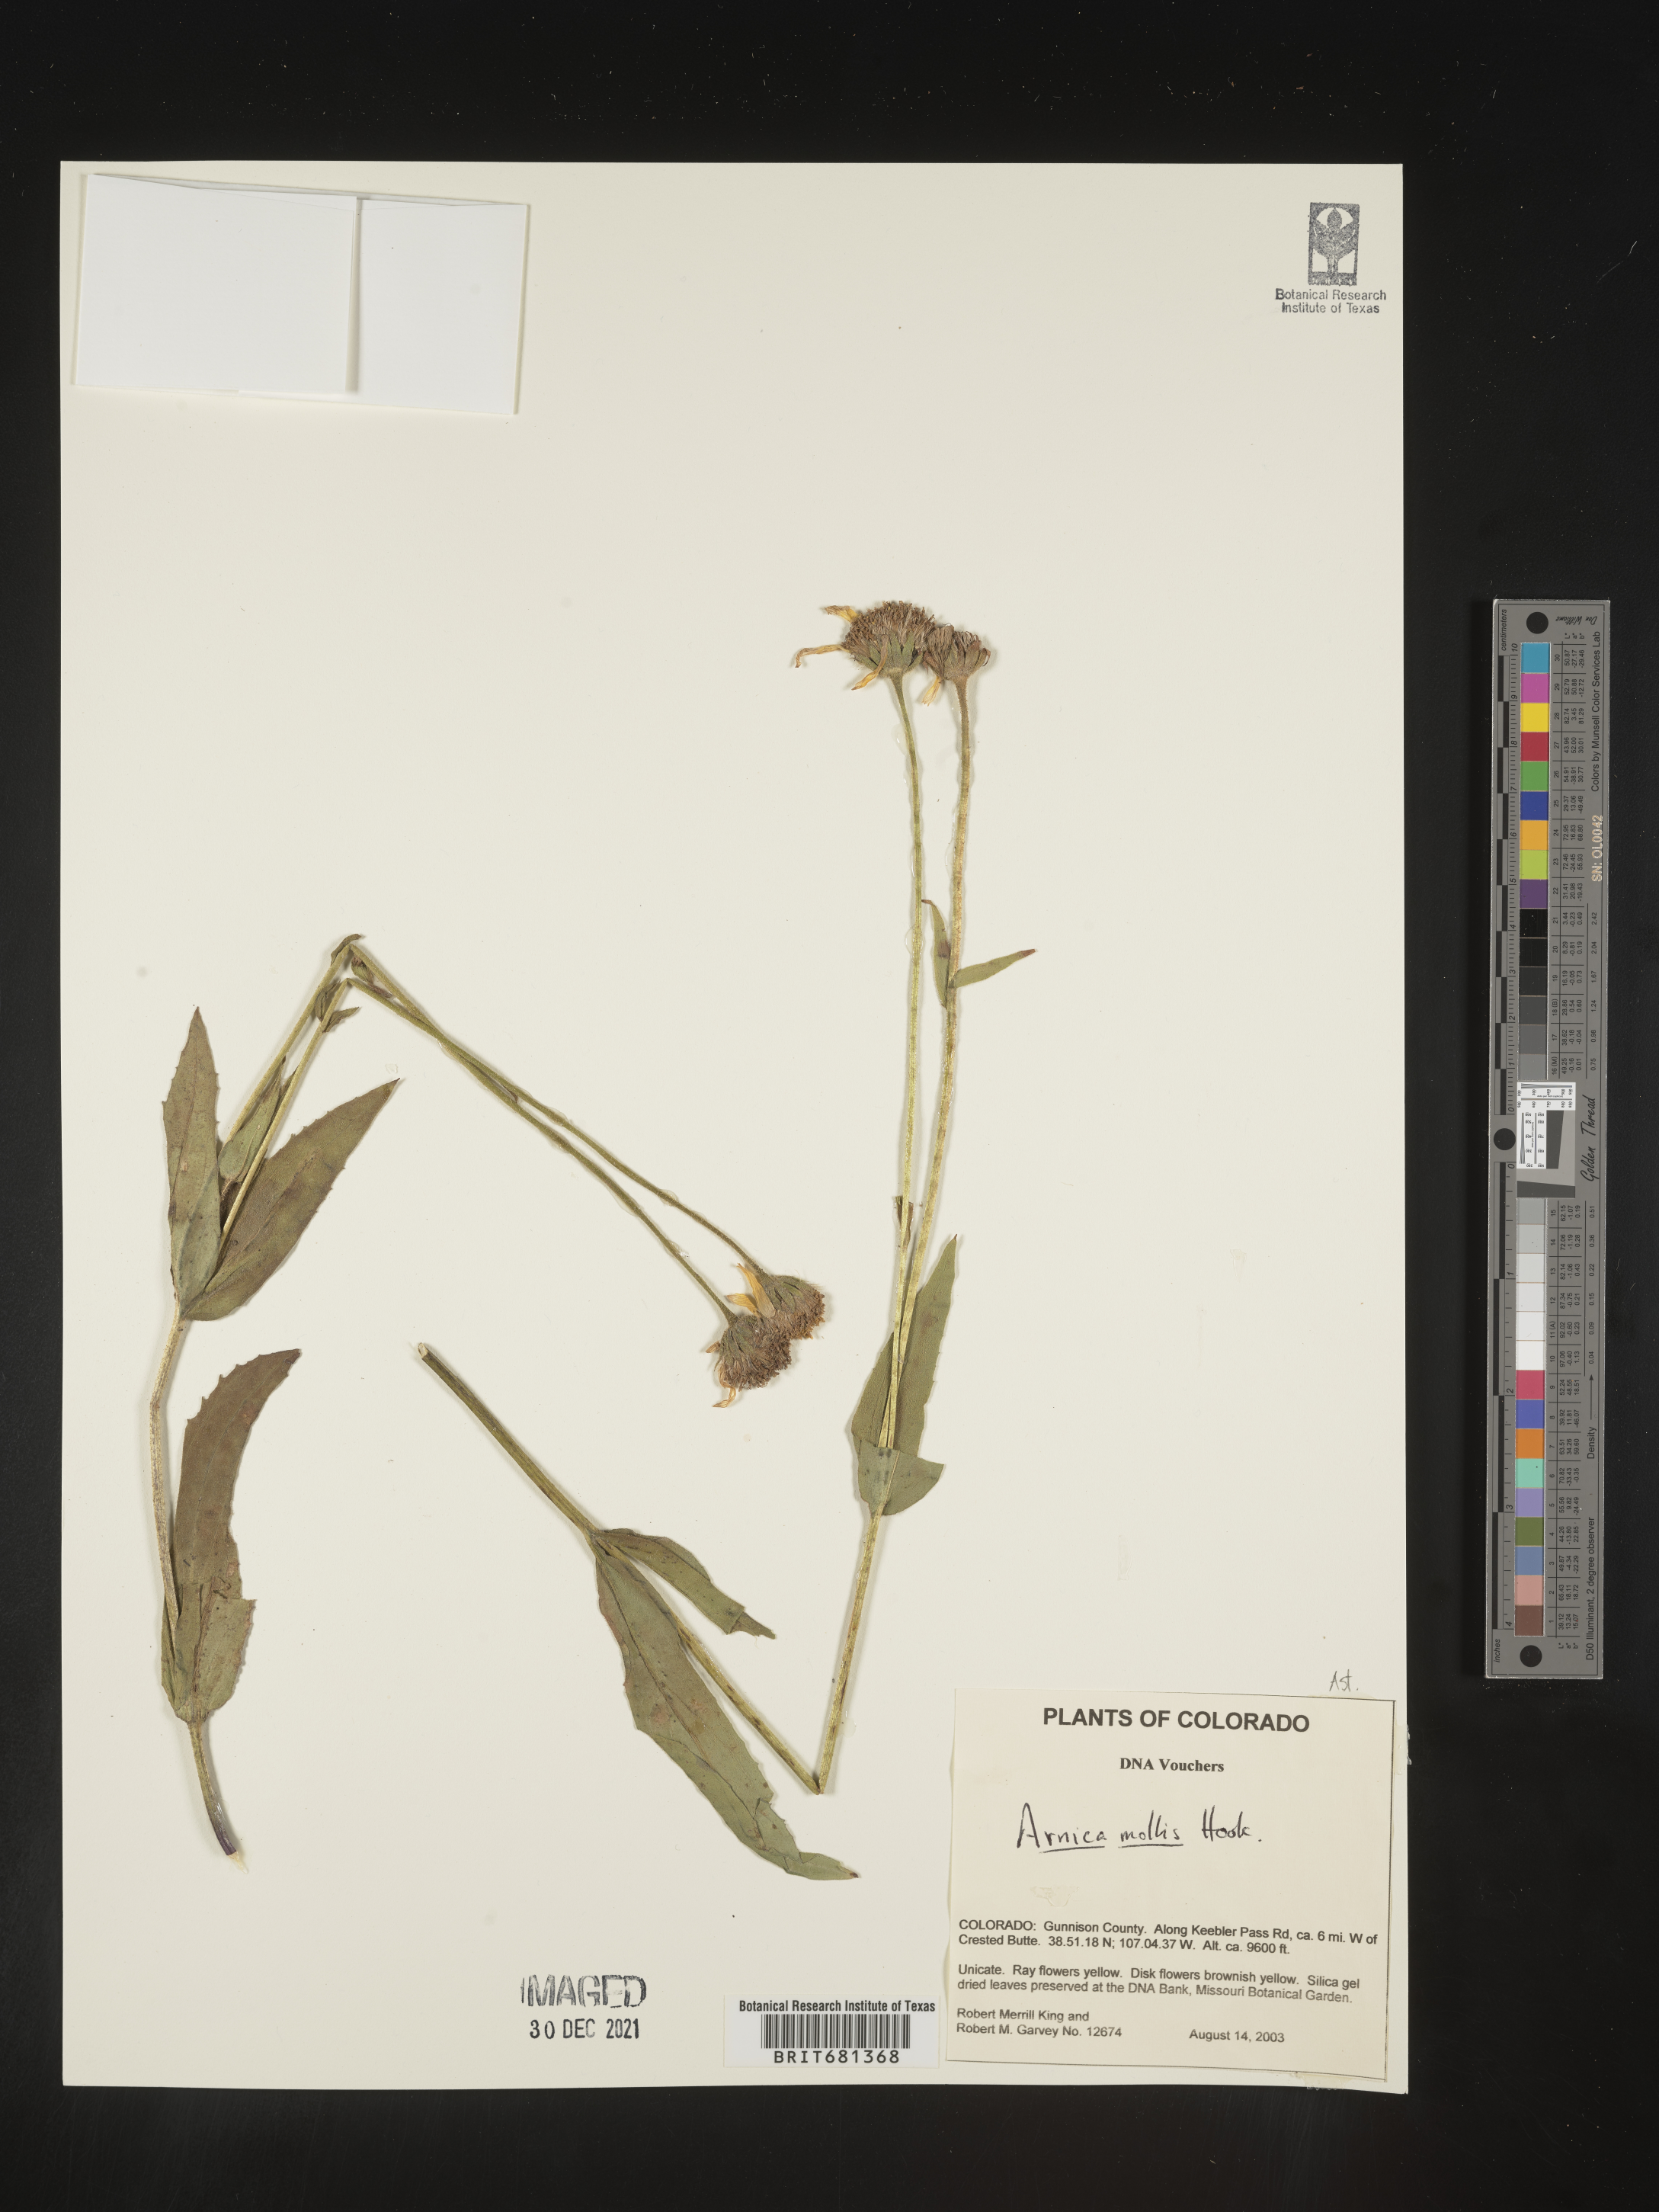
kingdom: Plantae
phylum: Tracheophyta
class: Magnoliopsida
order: Asterales
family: Asteraceae
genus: Arnica
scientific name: Arnica mollis
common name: Hairy arnica
